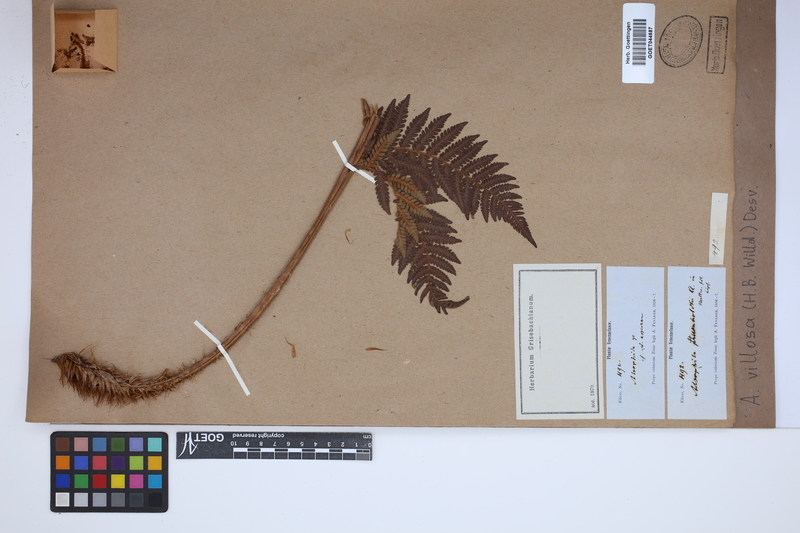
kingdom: Plantae
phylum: Tracheophyta
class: Polypodiopsida
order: Cyatheales
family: Cyatheaceae
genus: Cyathea
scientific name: Cyathea villosa
